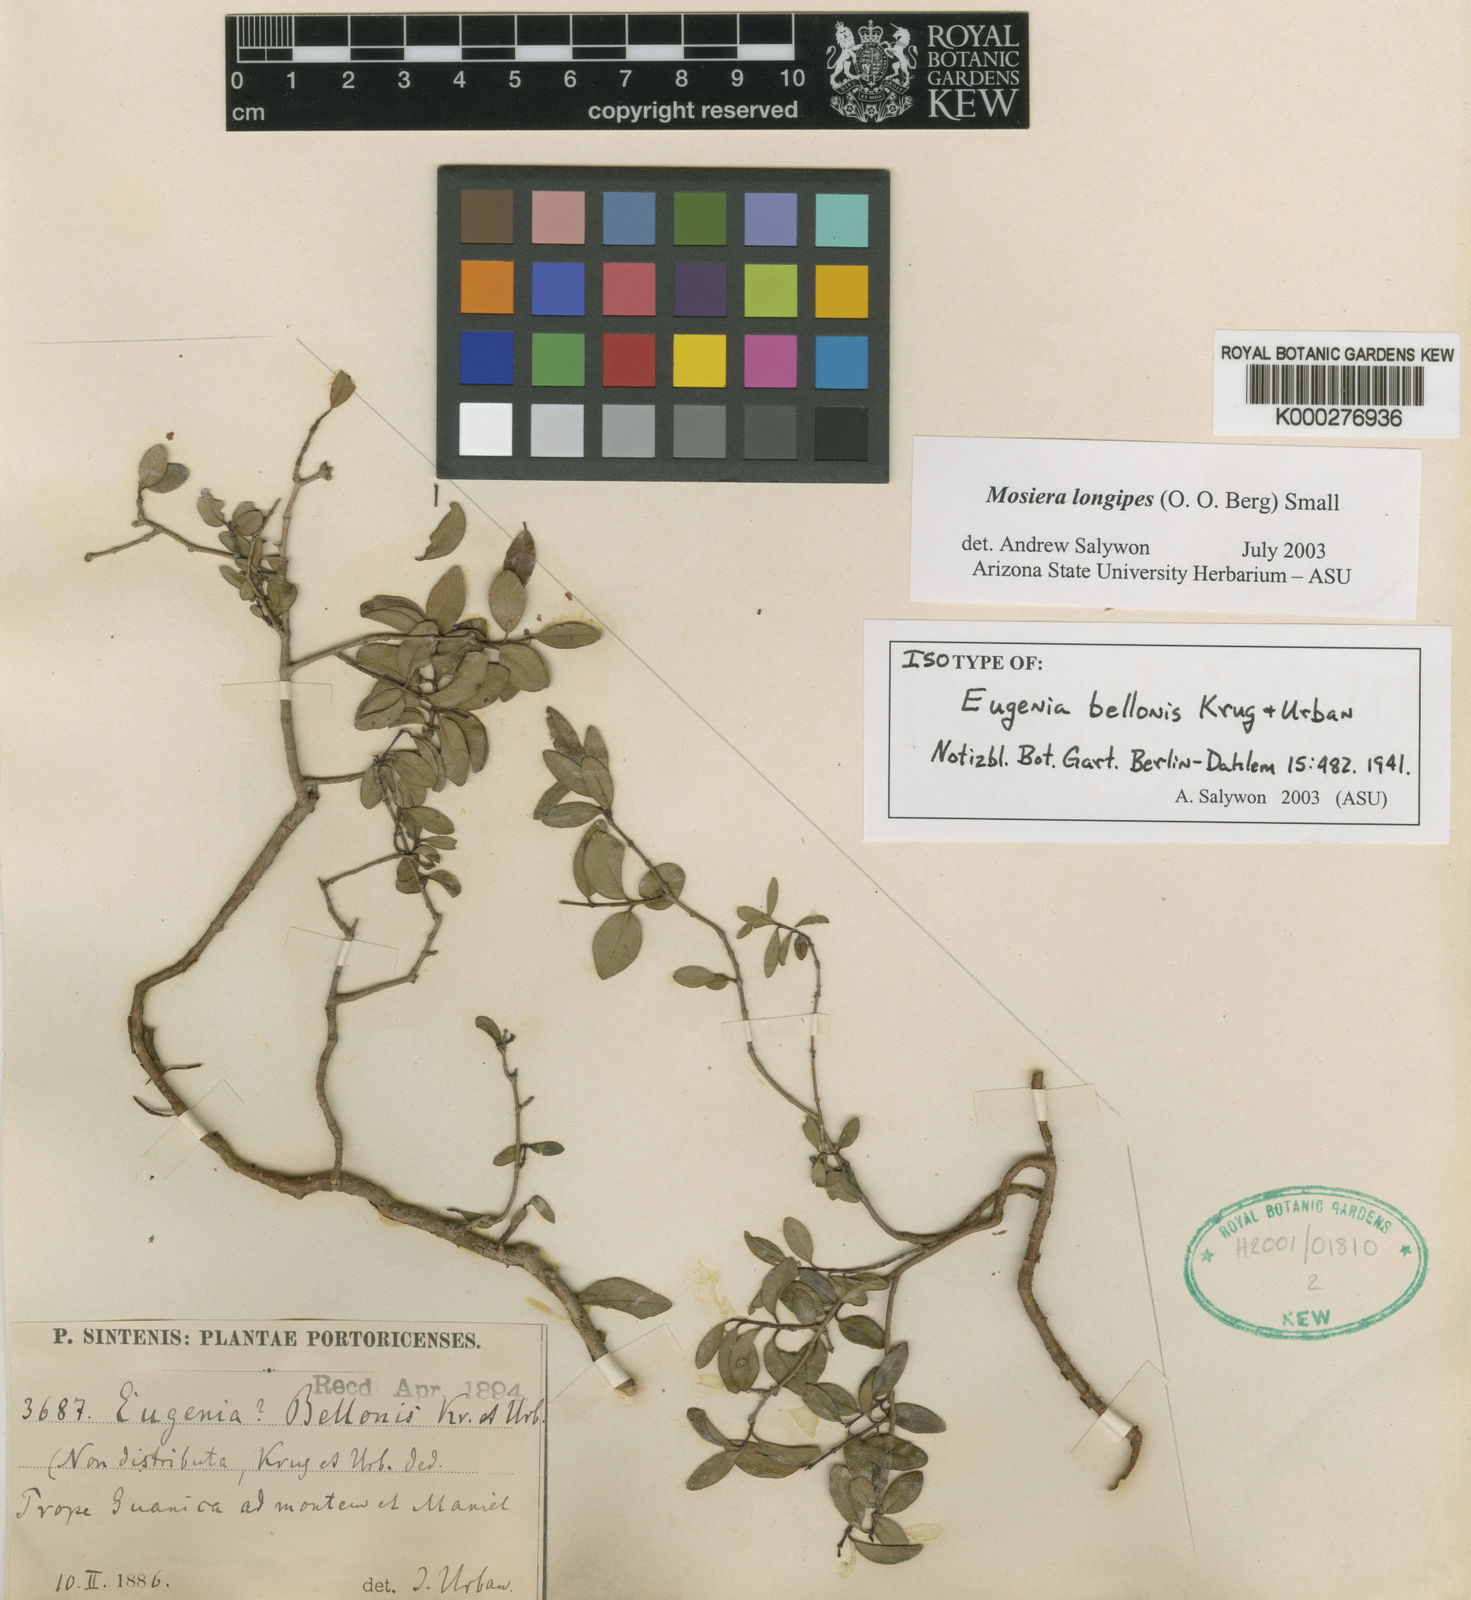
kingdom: Plantae
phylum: Tracheophyta
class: Magnoliopsida
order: Myrtales
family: Myrtaceae
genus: Mosiera
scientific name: Mosiera longipes
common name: Bahama stopper
